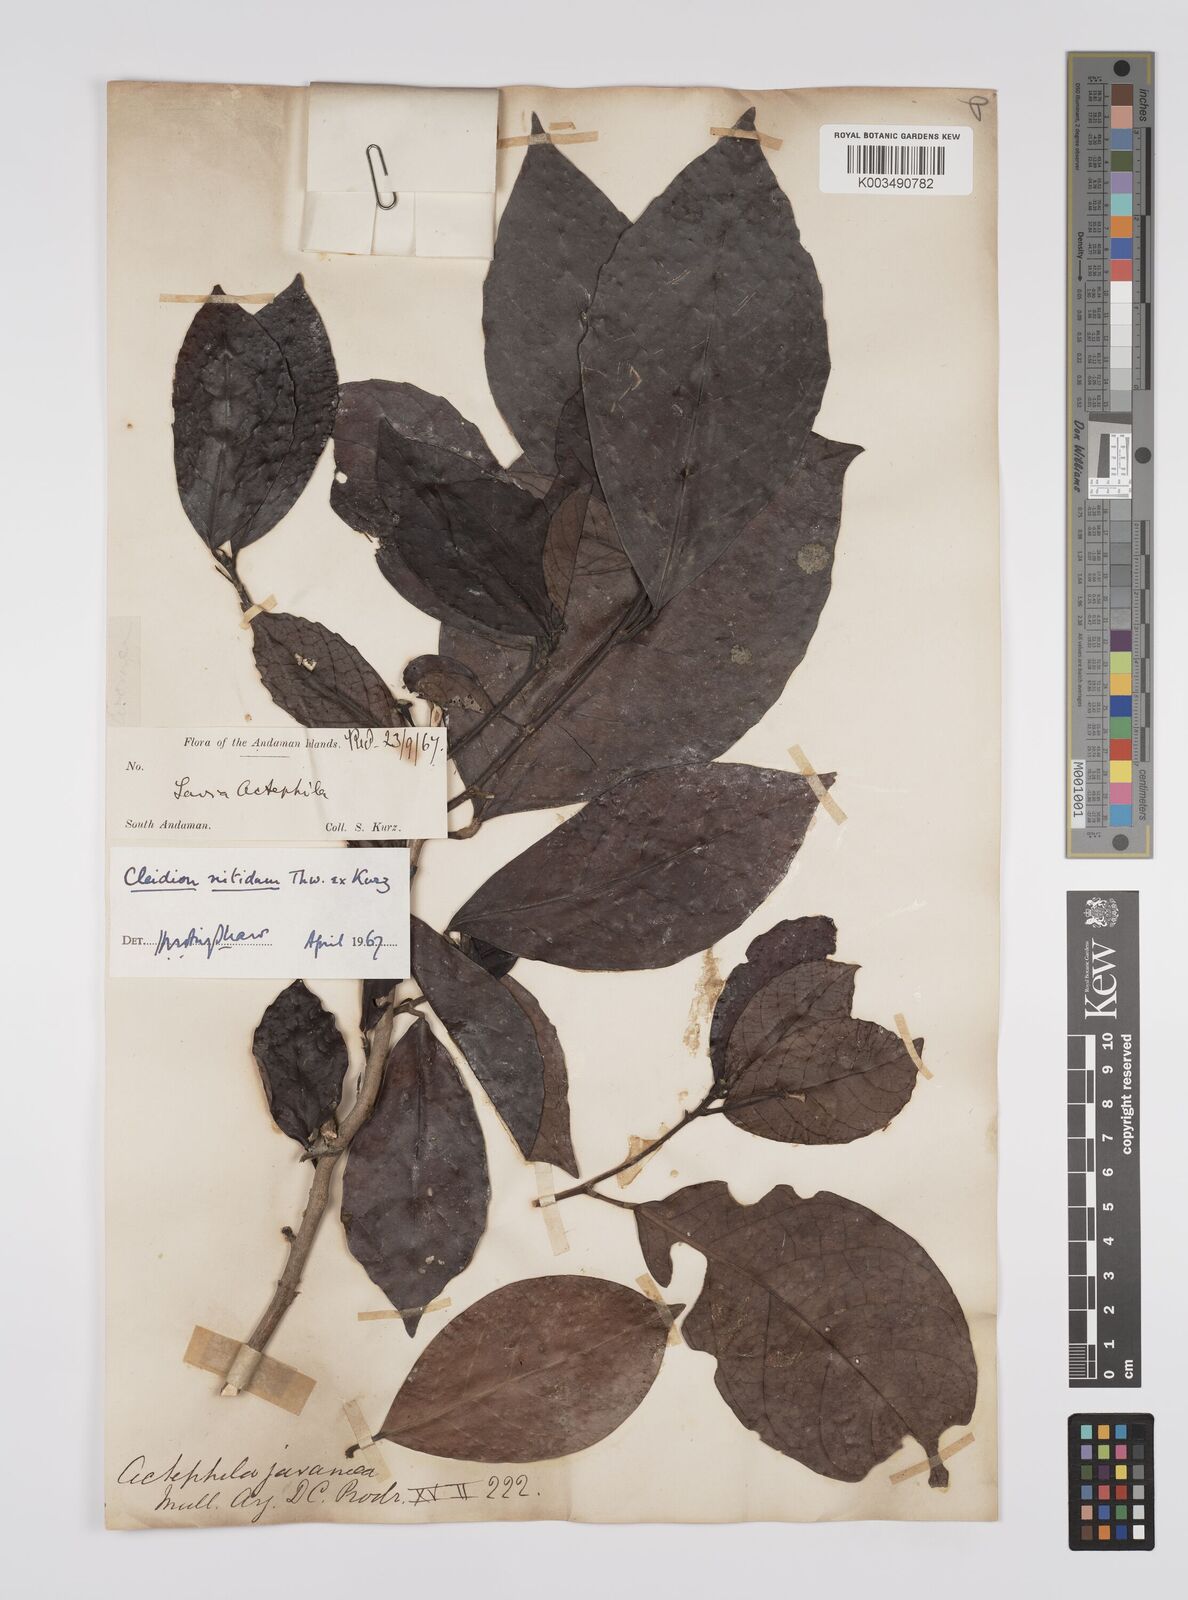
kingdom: Plantae
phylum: Tracheophyta
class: Magnoliopsida
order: Malpighiales
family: Euphorbiaceae
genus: Cleidion
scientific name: Cleidion nitidum
